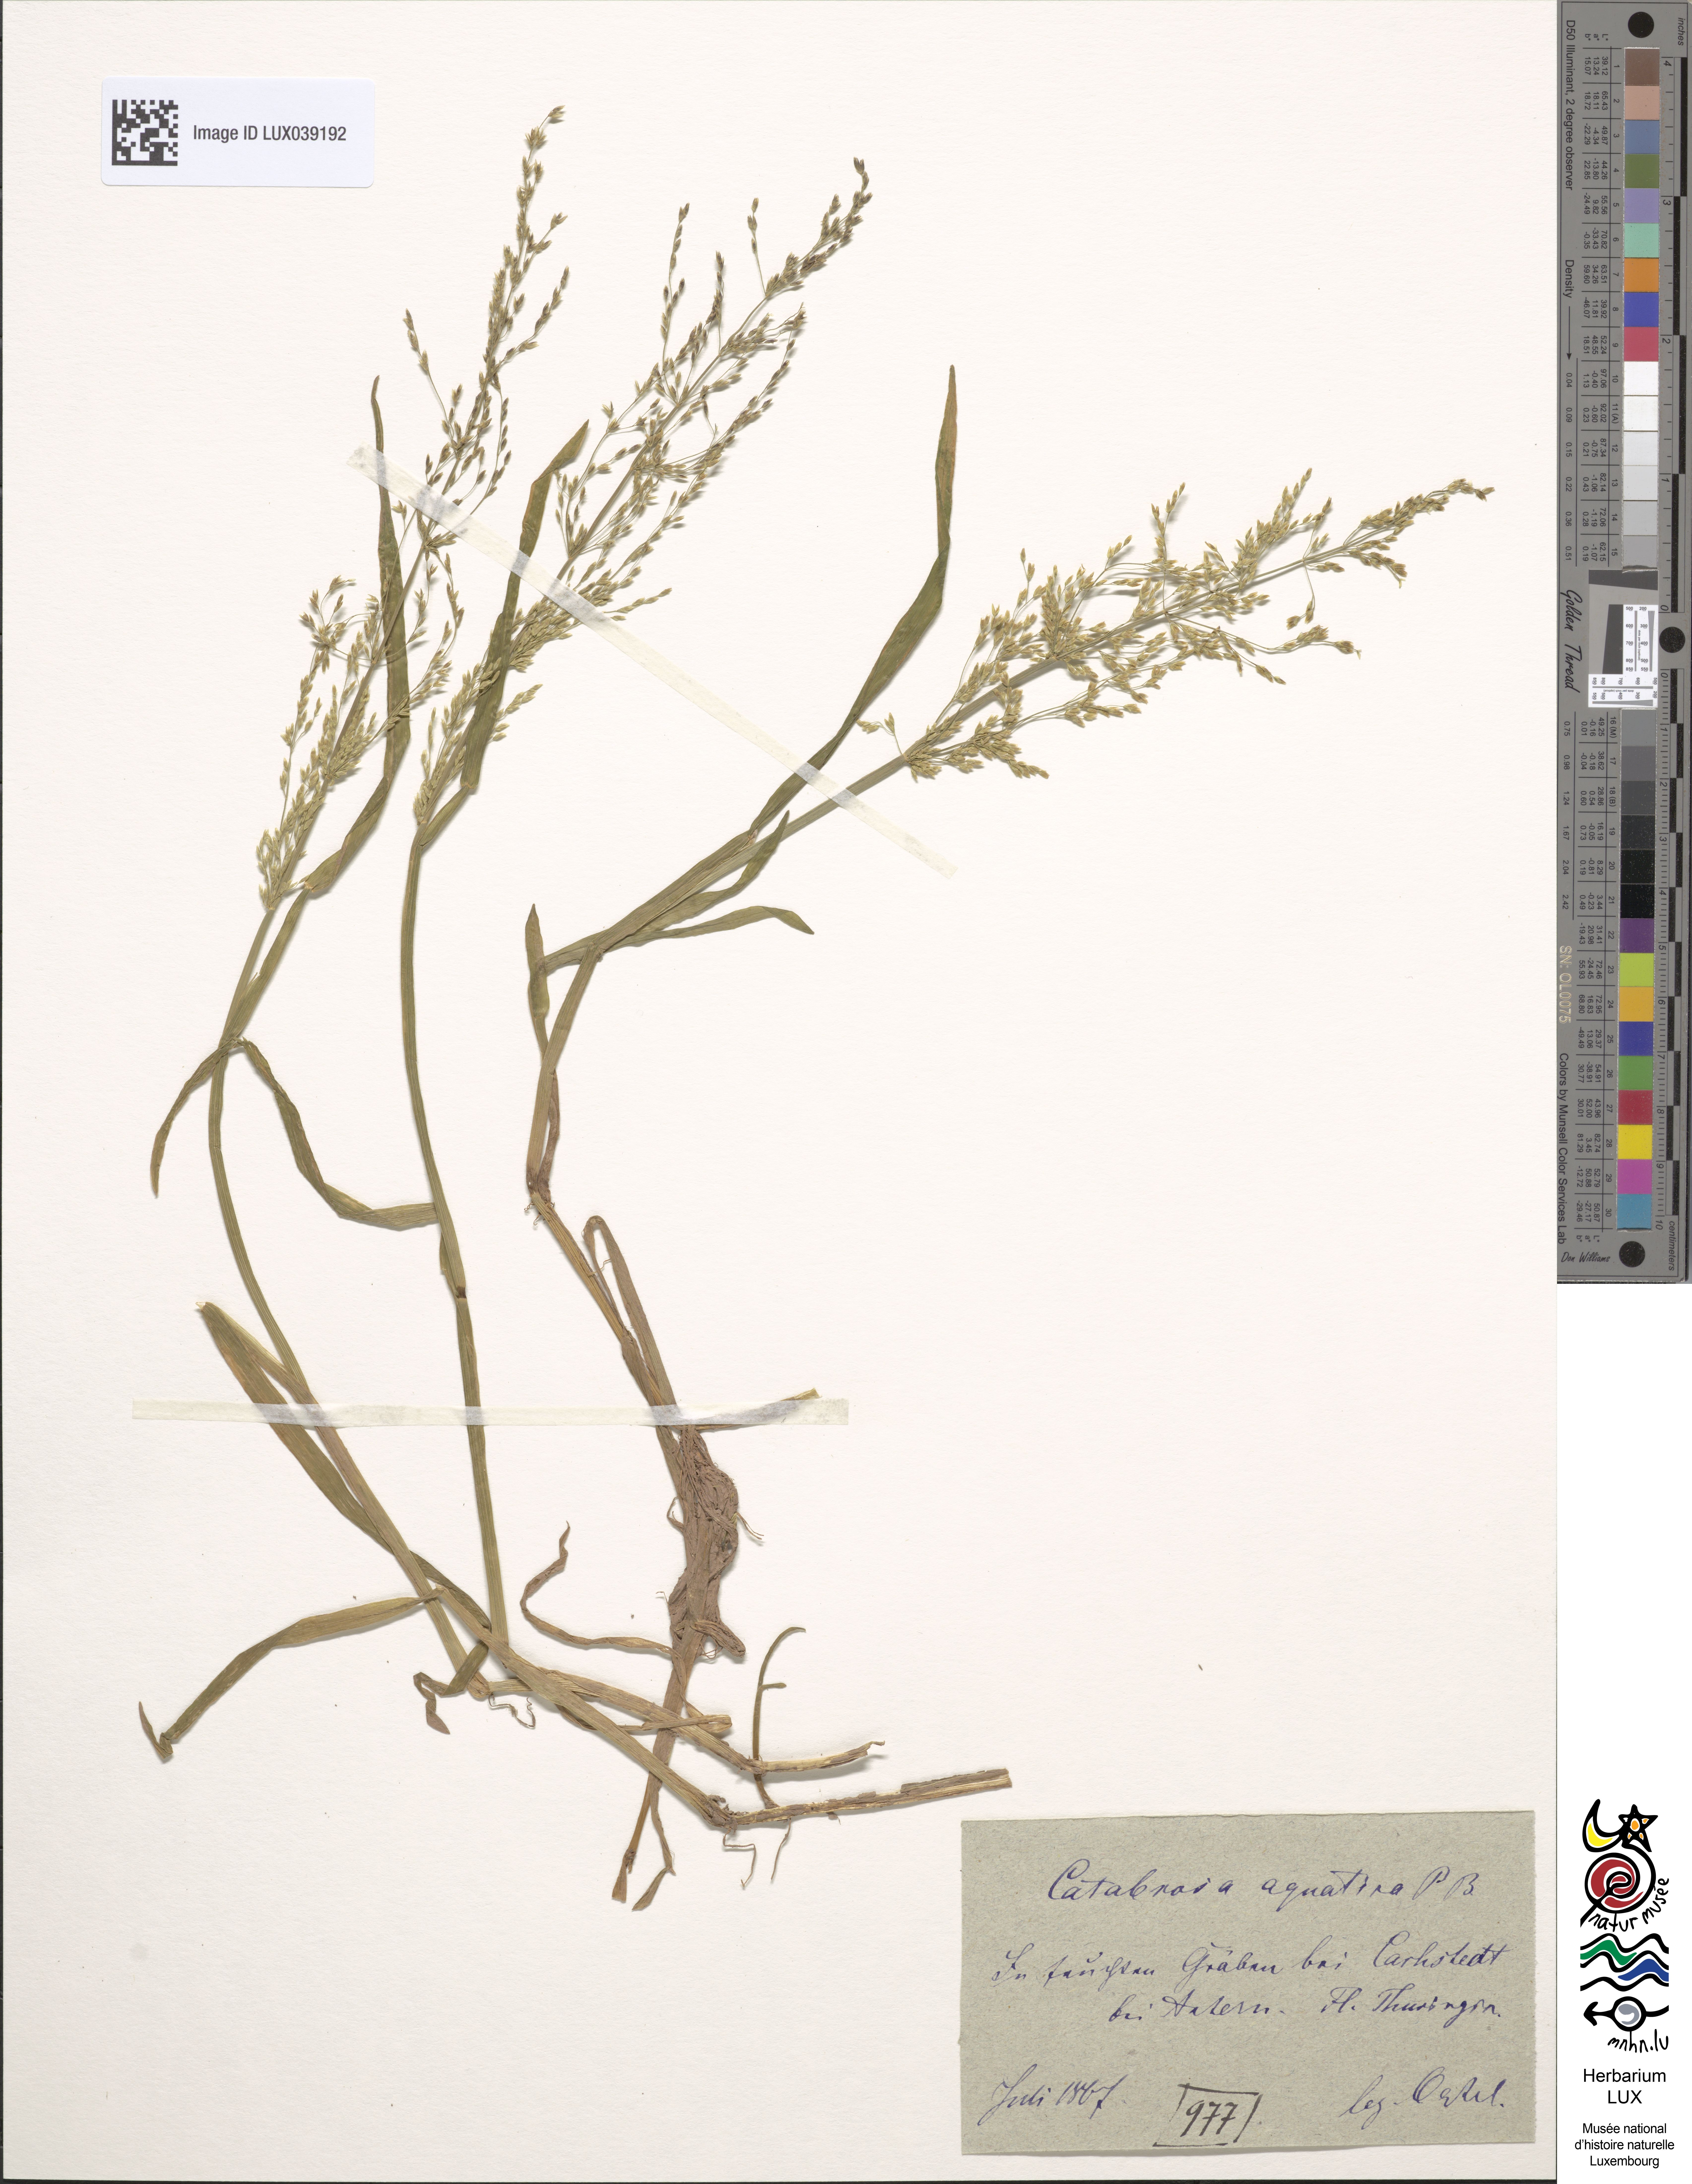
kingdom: Plantae
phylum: Tracheophyta
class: Liliopsida
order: Poales
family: Poaceae
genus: Catabrosa
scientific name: Catabrosa aquatica
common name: Whorl-grass
